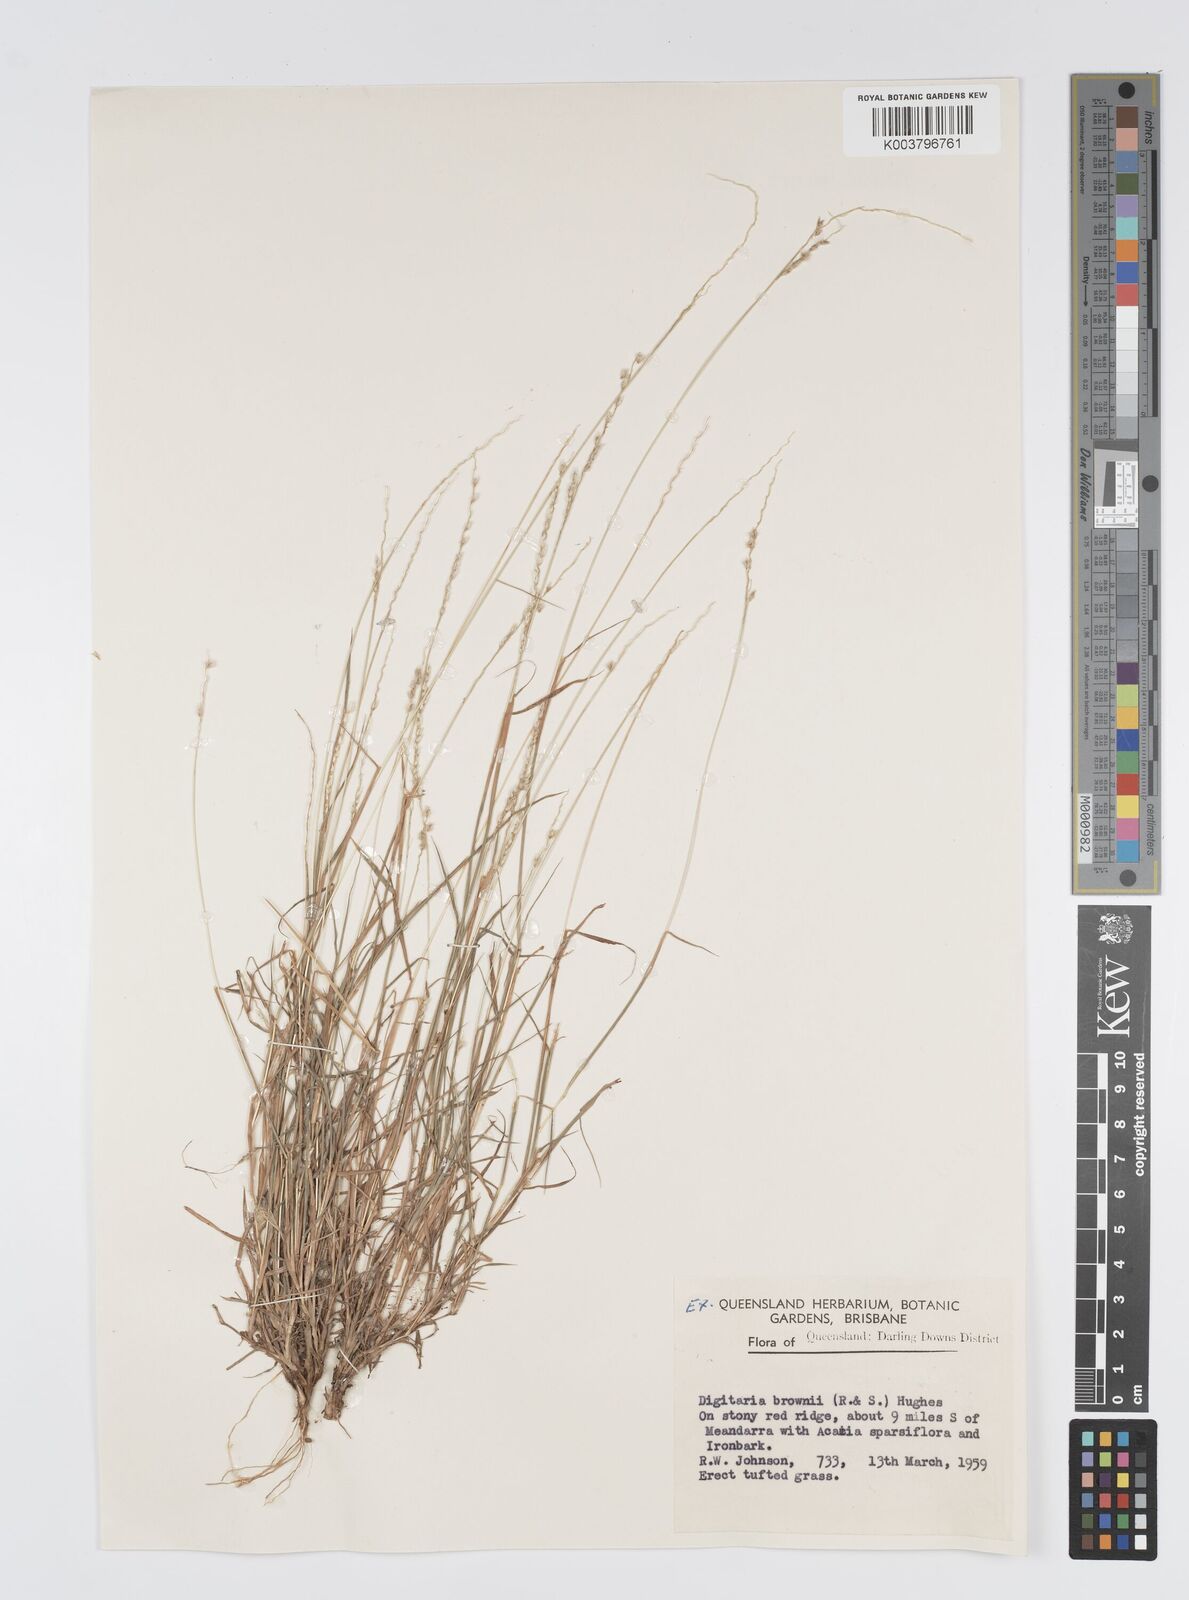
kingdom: Plantae
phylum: Tracheophyta
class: Liliopsida
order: Poales
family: Poaceae
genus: Digitaria
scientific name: Digitaria brownii
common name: Cotton grass
